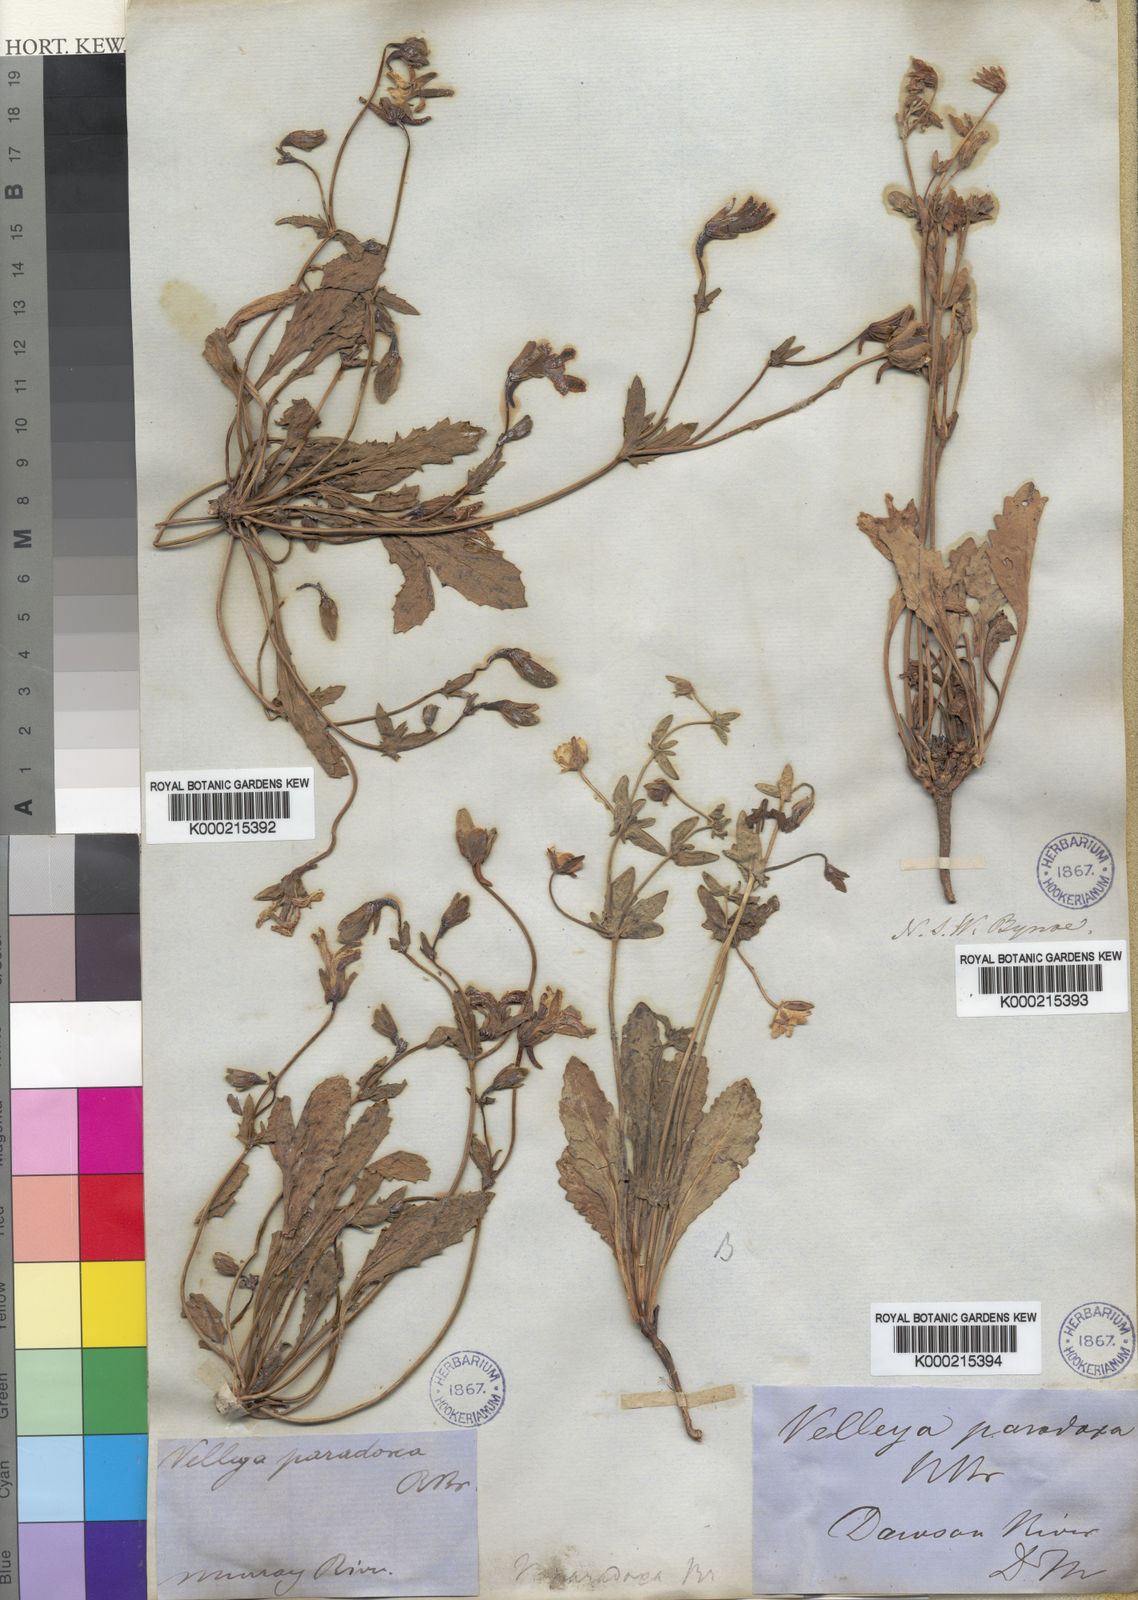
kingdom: Plantae
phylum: Tracheophyta
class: Magnoliopsida
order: Asterales
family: Goodeniaceae
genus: Goodenia
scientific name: Goodenia paradoxa
